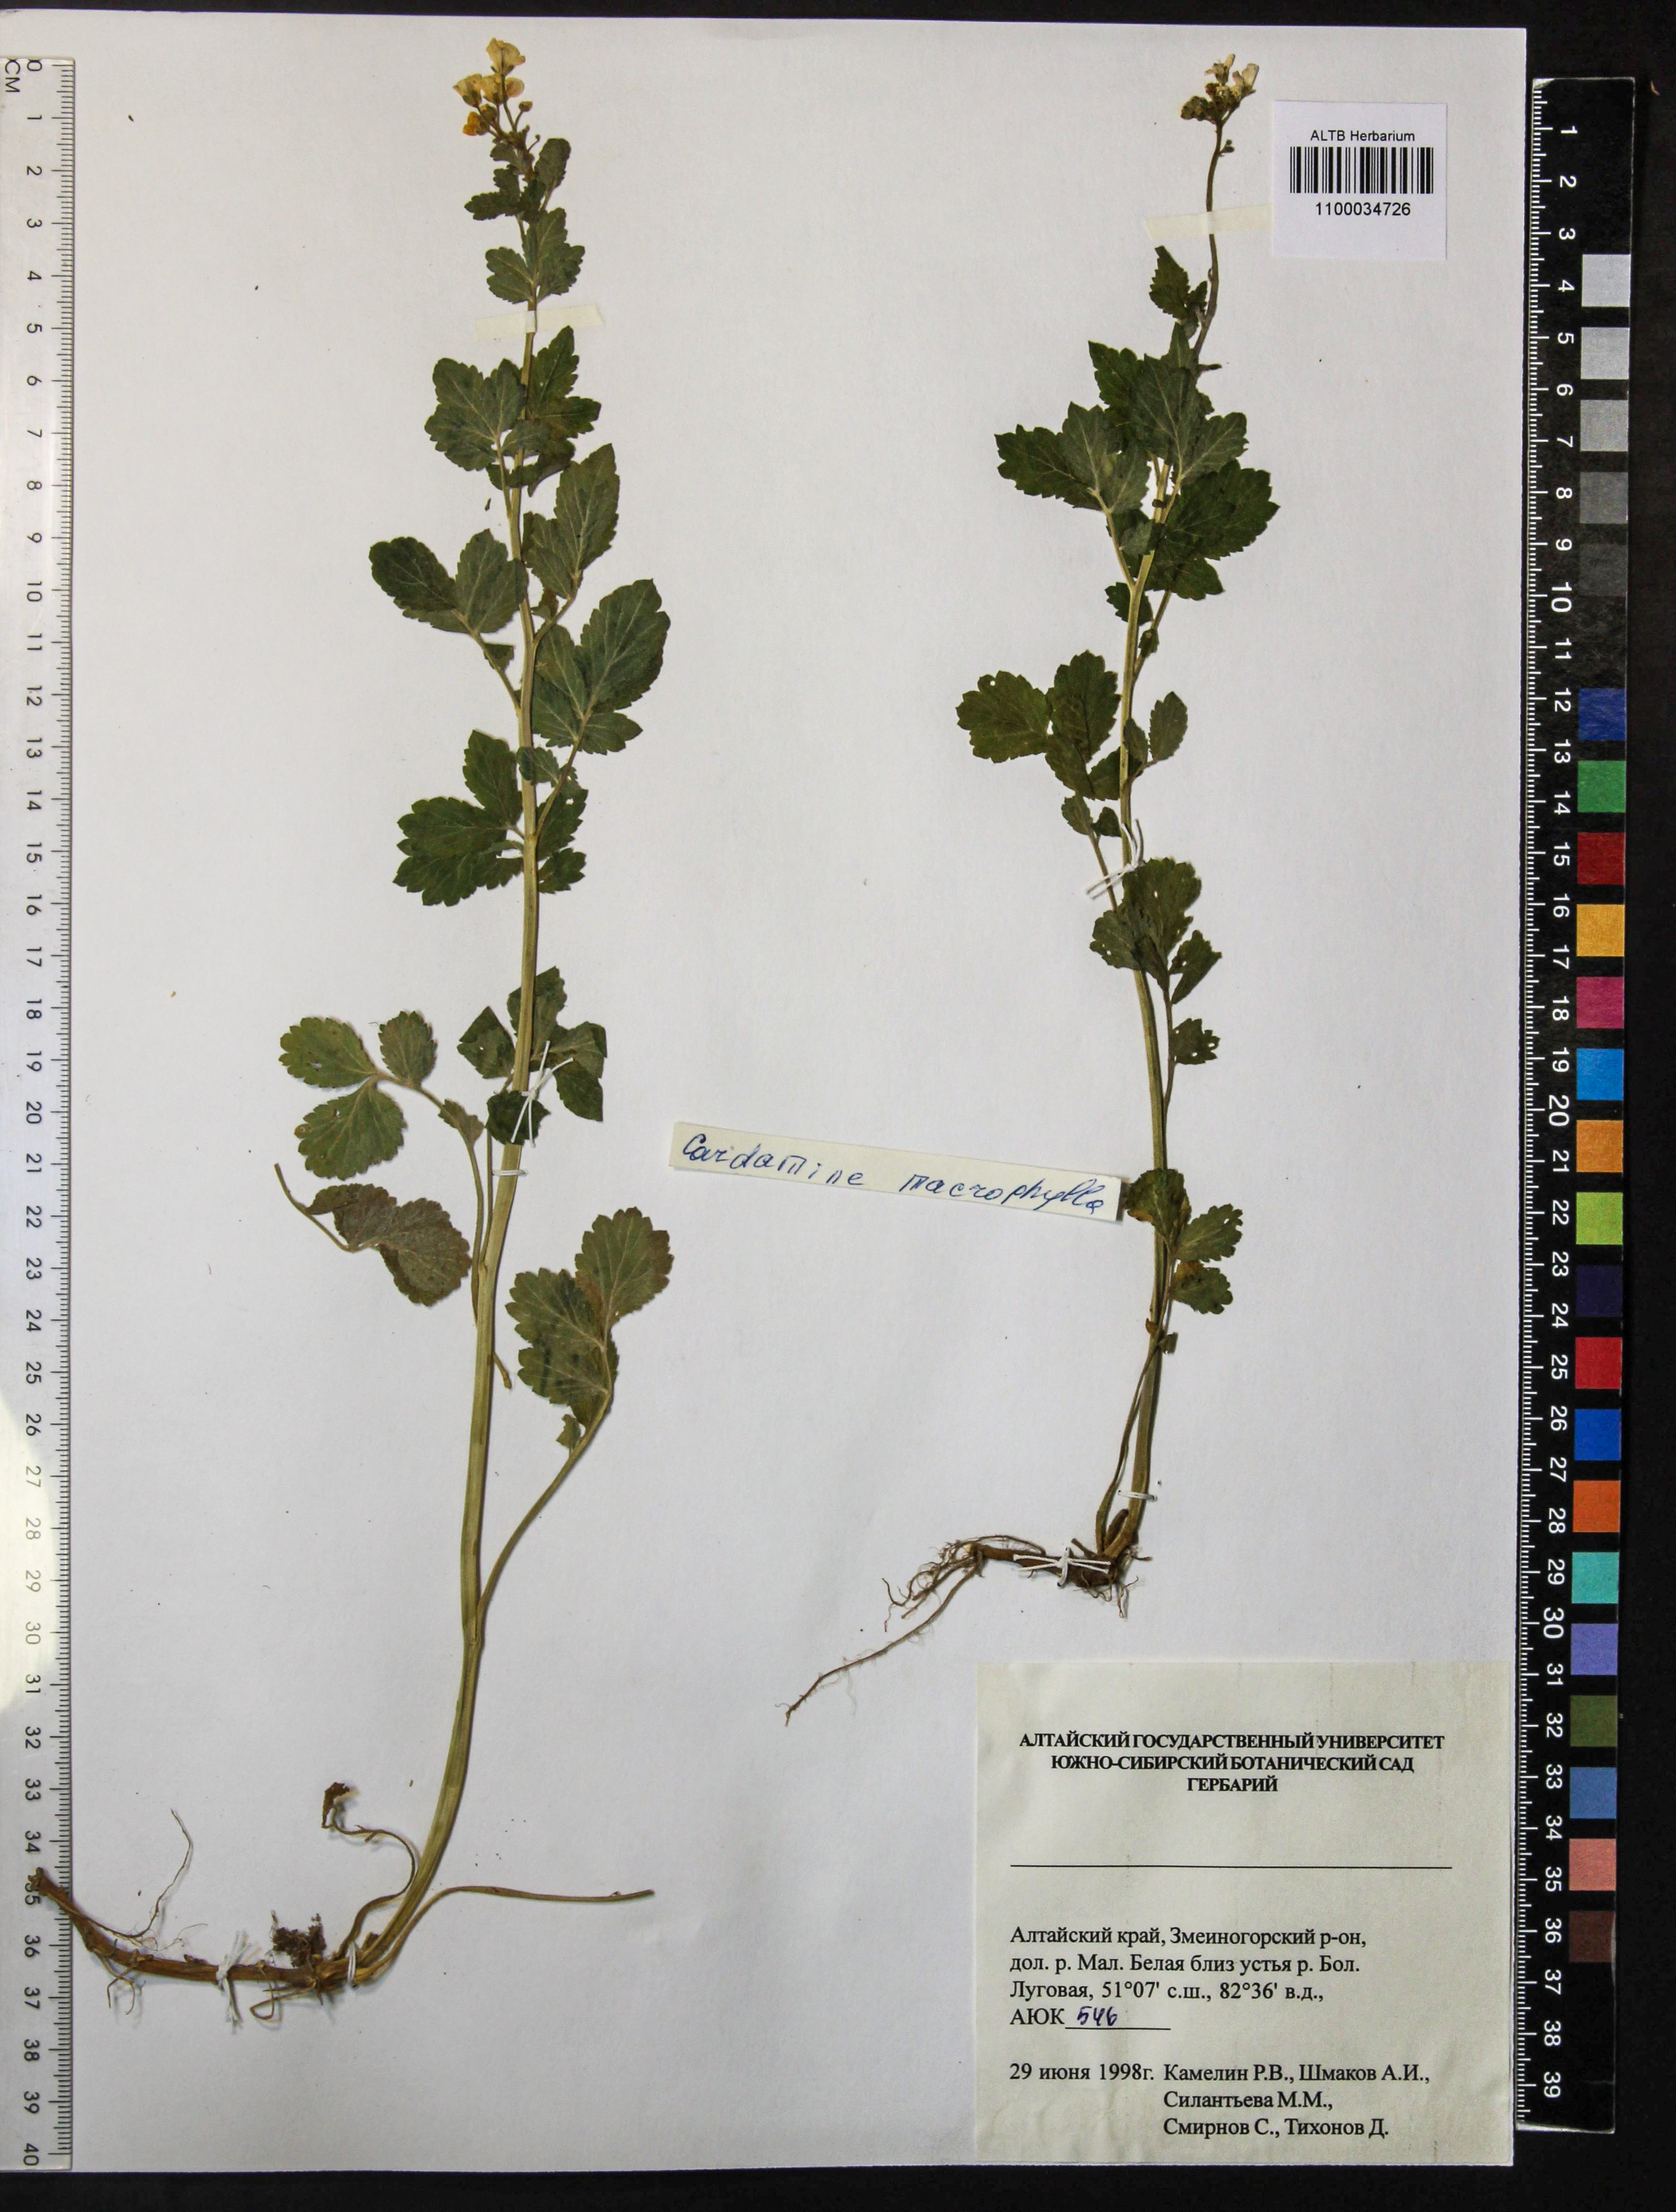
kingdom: Plantae
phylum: Tracheophyta
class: Magnoliopsida
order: Brassicales
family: Brassicaceae
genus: Cardamine
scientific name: Cardamine macrophylla
